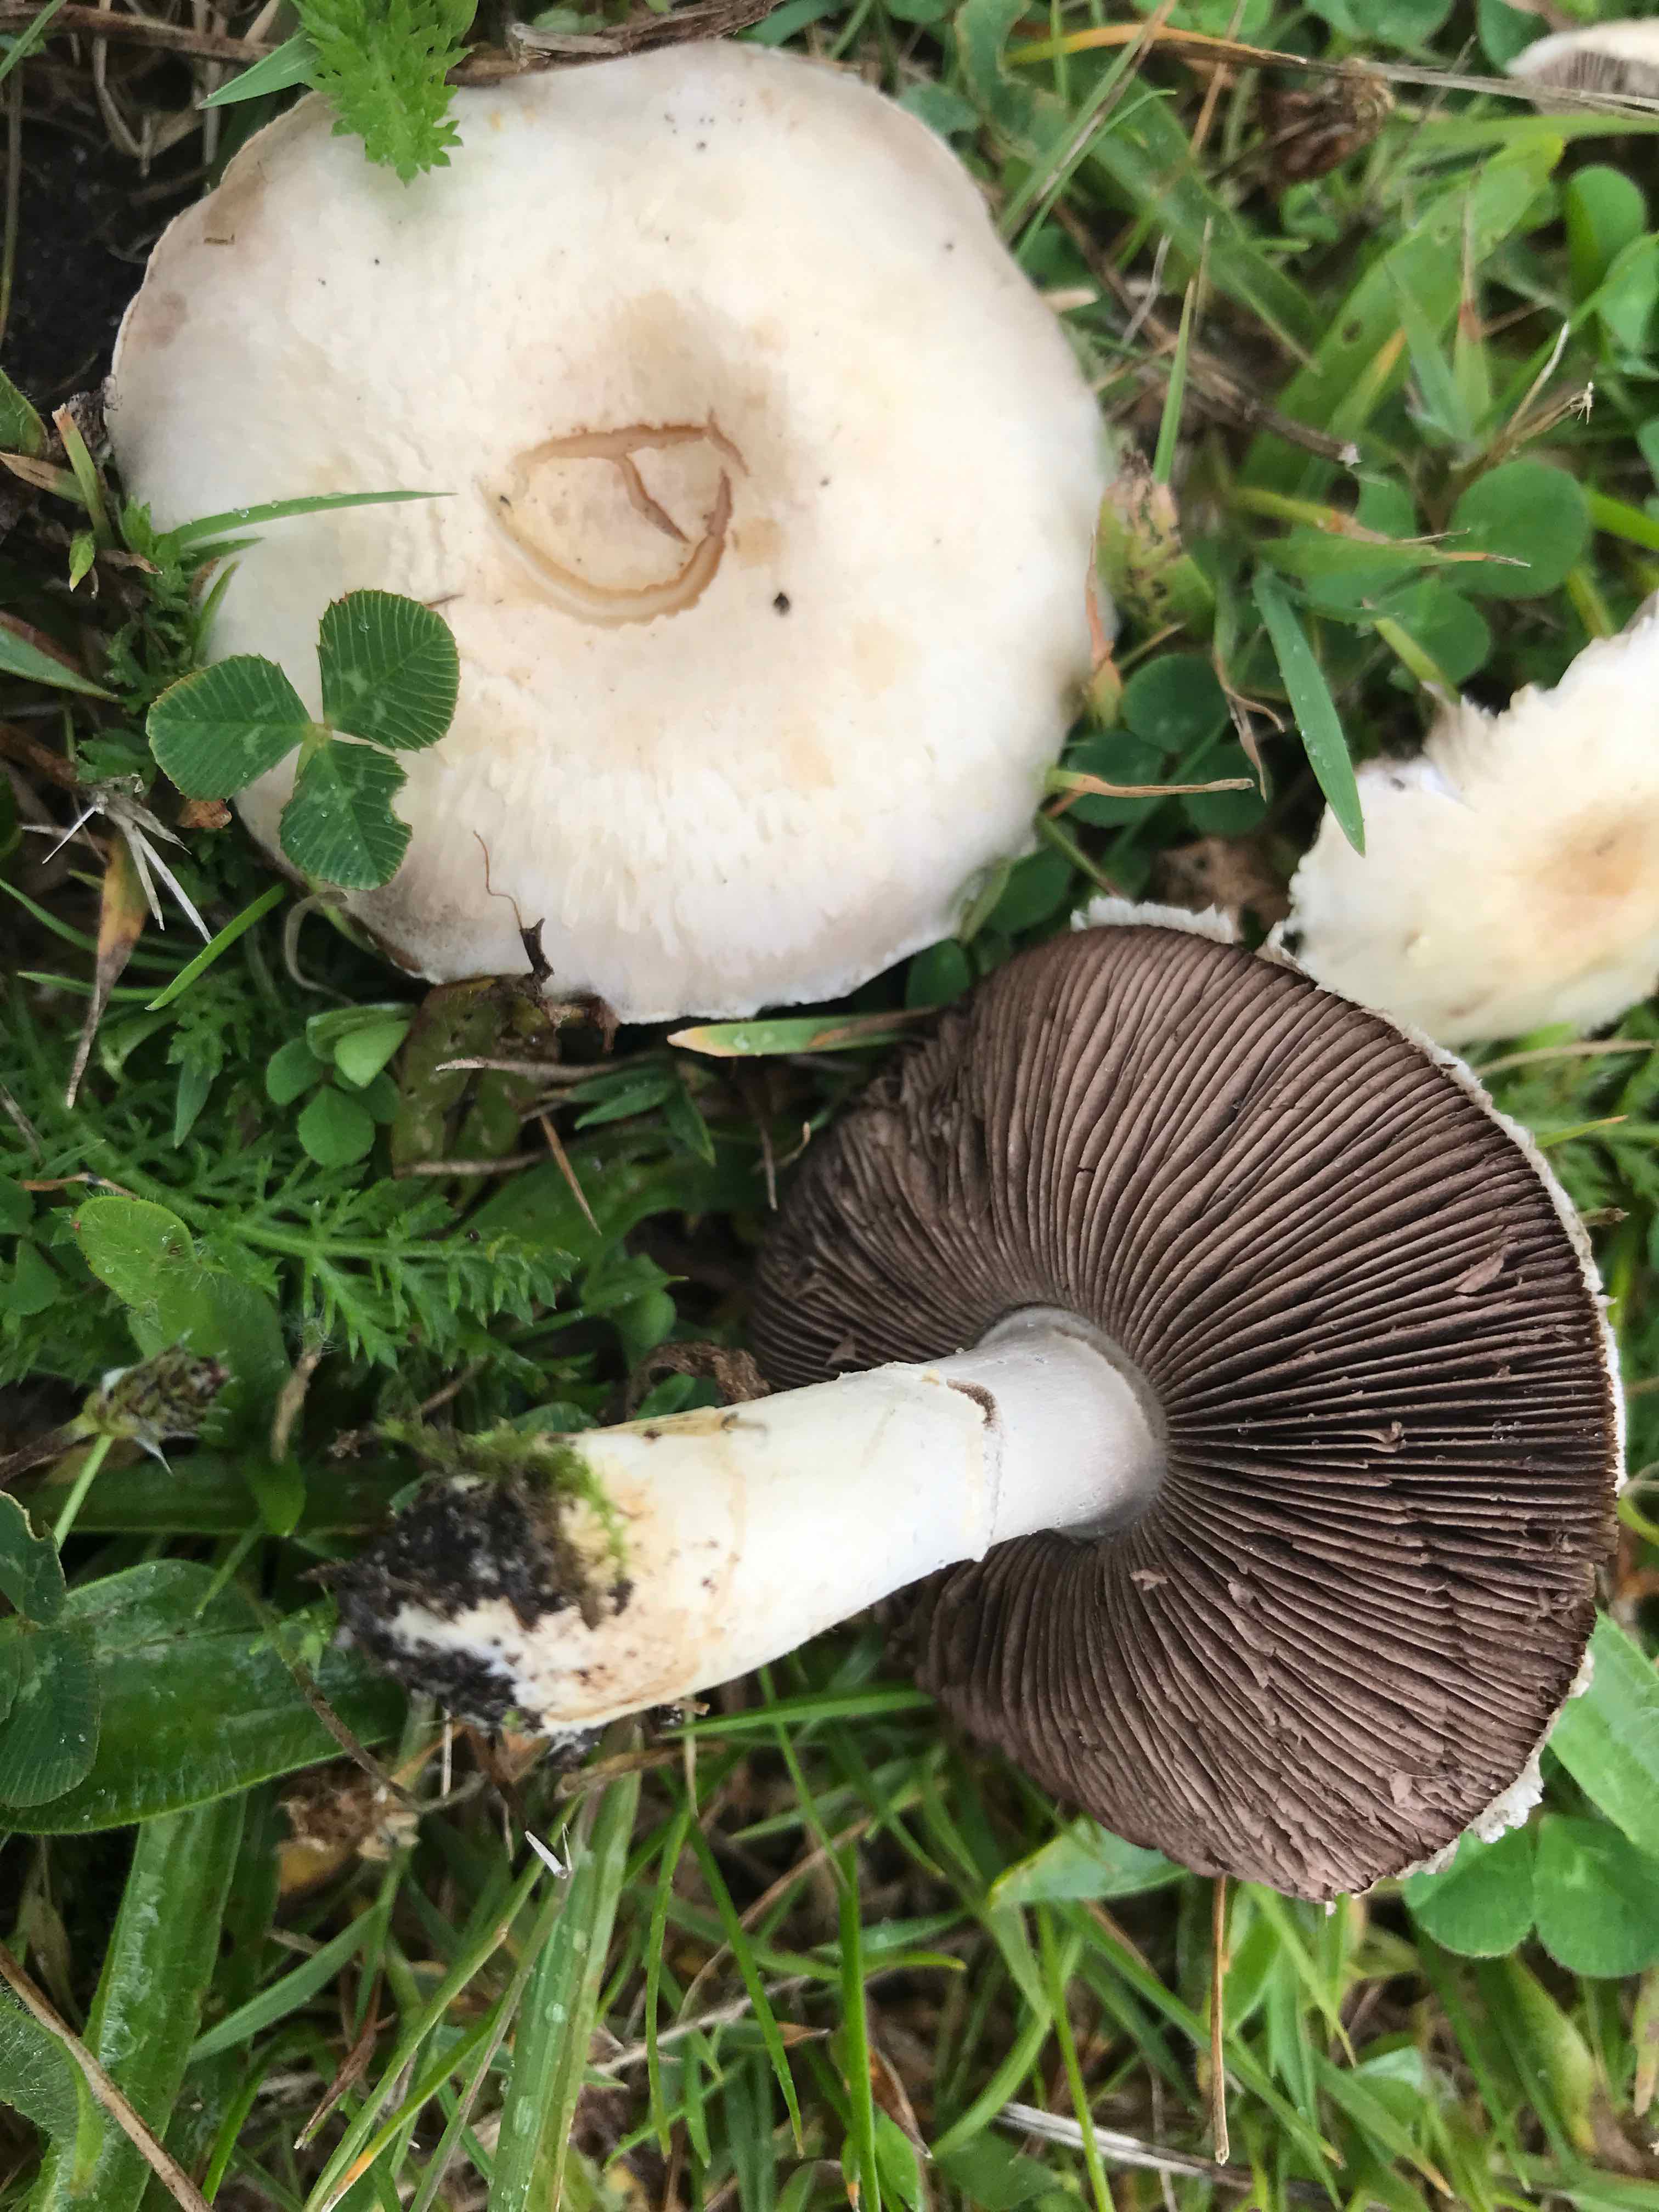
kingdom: Fungi
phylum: Basidiomycota
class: Agaricomycetes
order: Agaricales
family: Agaricaceae
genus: Agaricus
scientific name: Agaricus arvensis
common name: ager-champignon
